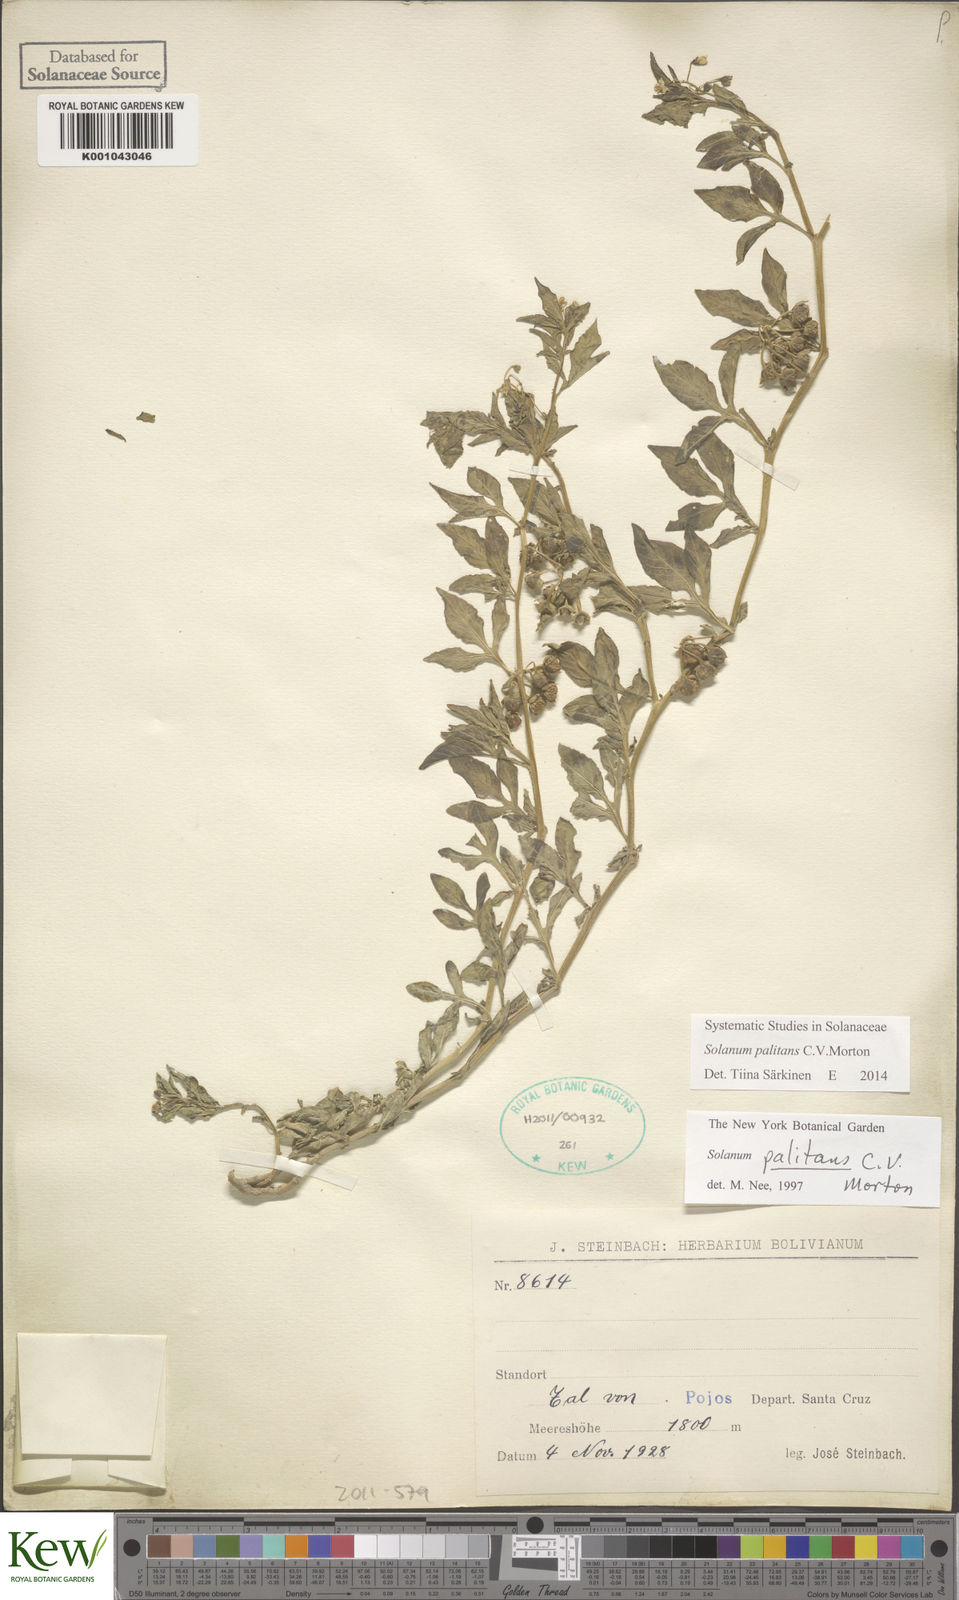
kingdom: Plantae
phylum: Tracheophyta
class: Magnoliopsida
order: Solanales
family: Solanaceae
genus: Solanum
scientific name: Solanum palitans
